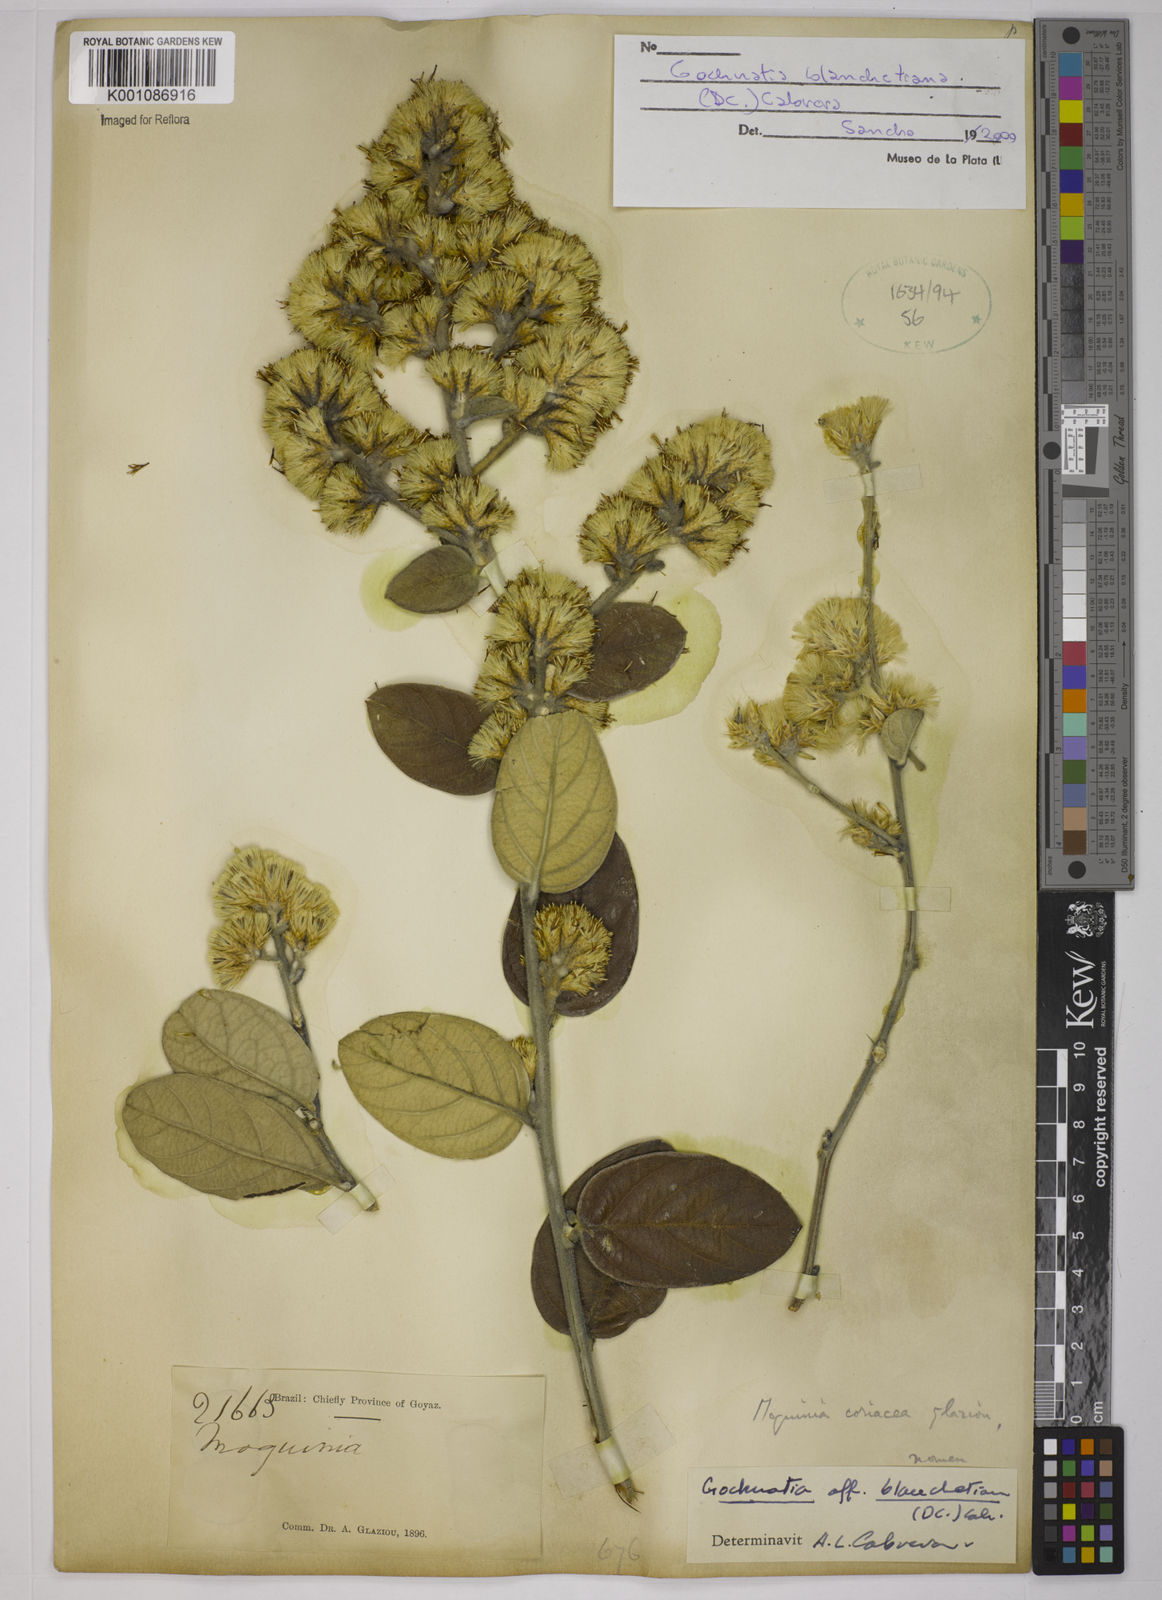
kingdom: Plantae
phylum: Tracheophyta
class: Magnoliopsida
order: Asterales
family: Asteraceae
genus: Moquiniastrum
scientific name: Moquiniastrum blanchetianum
